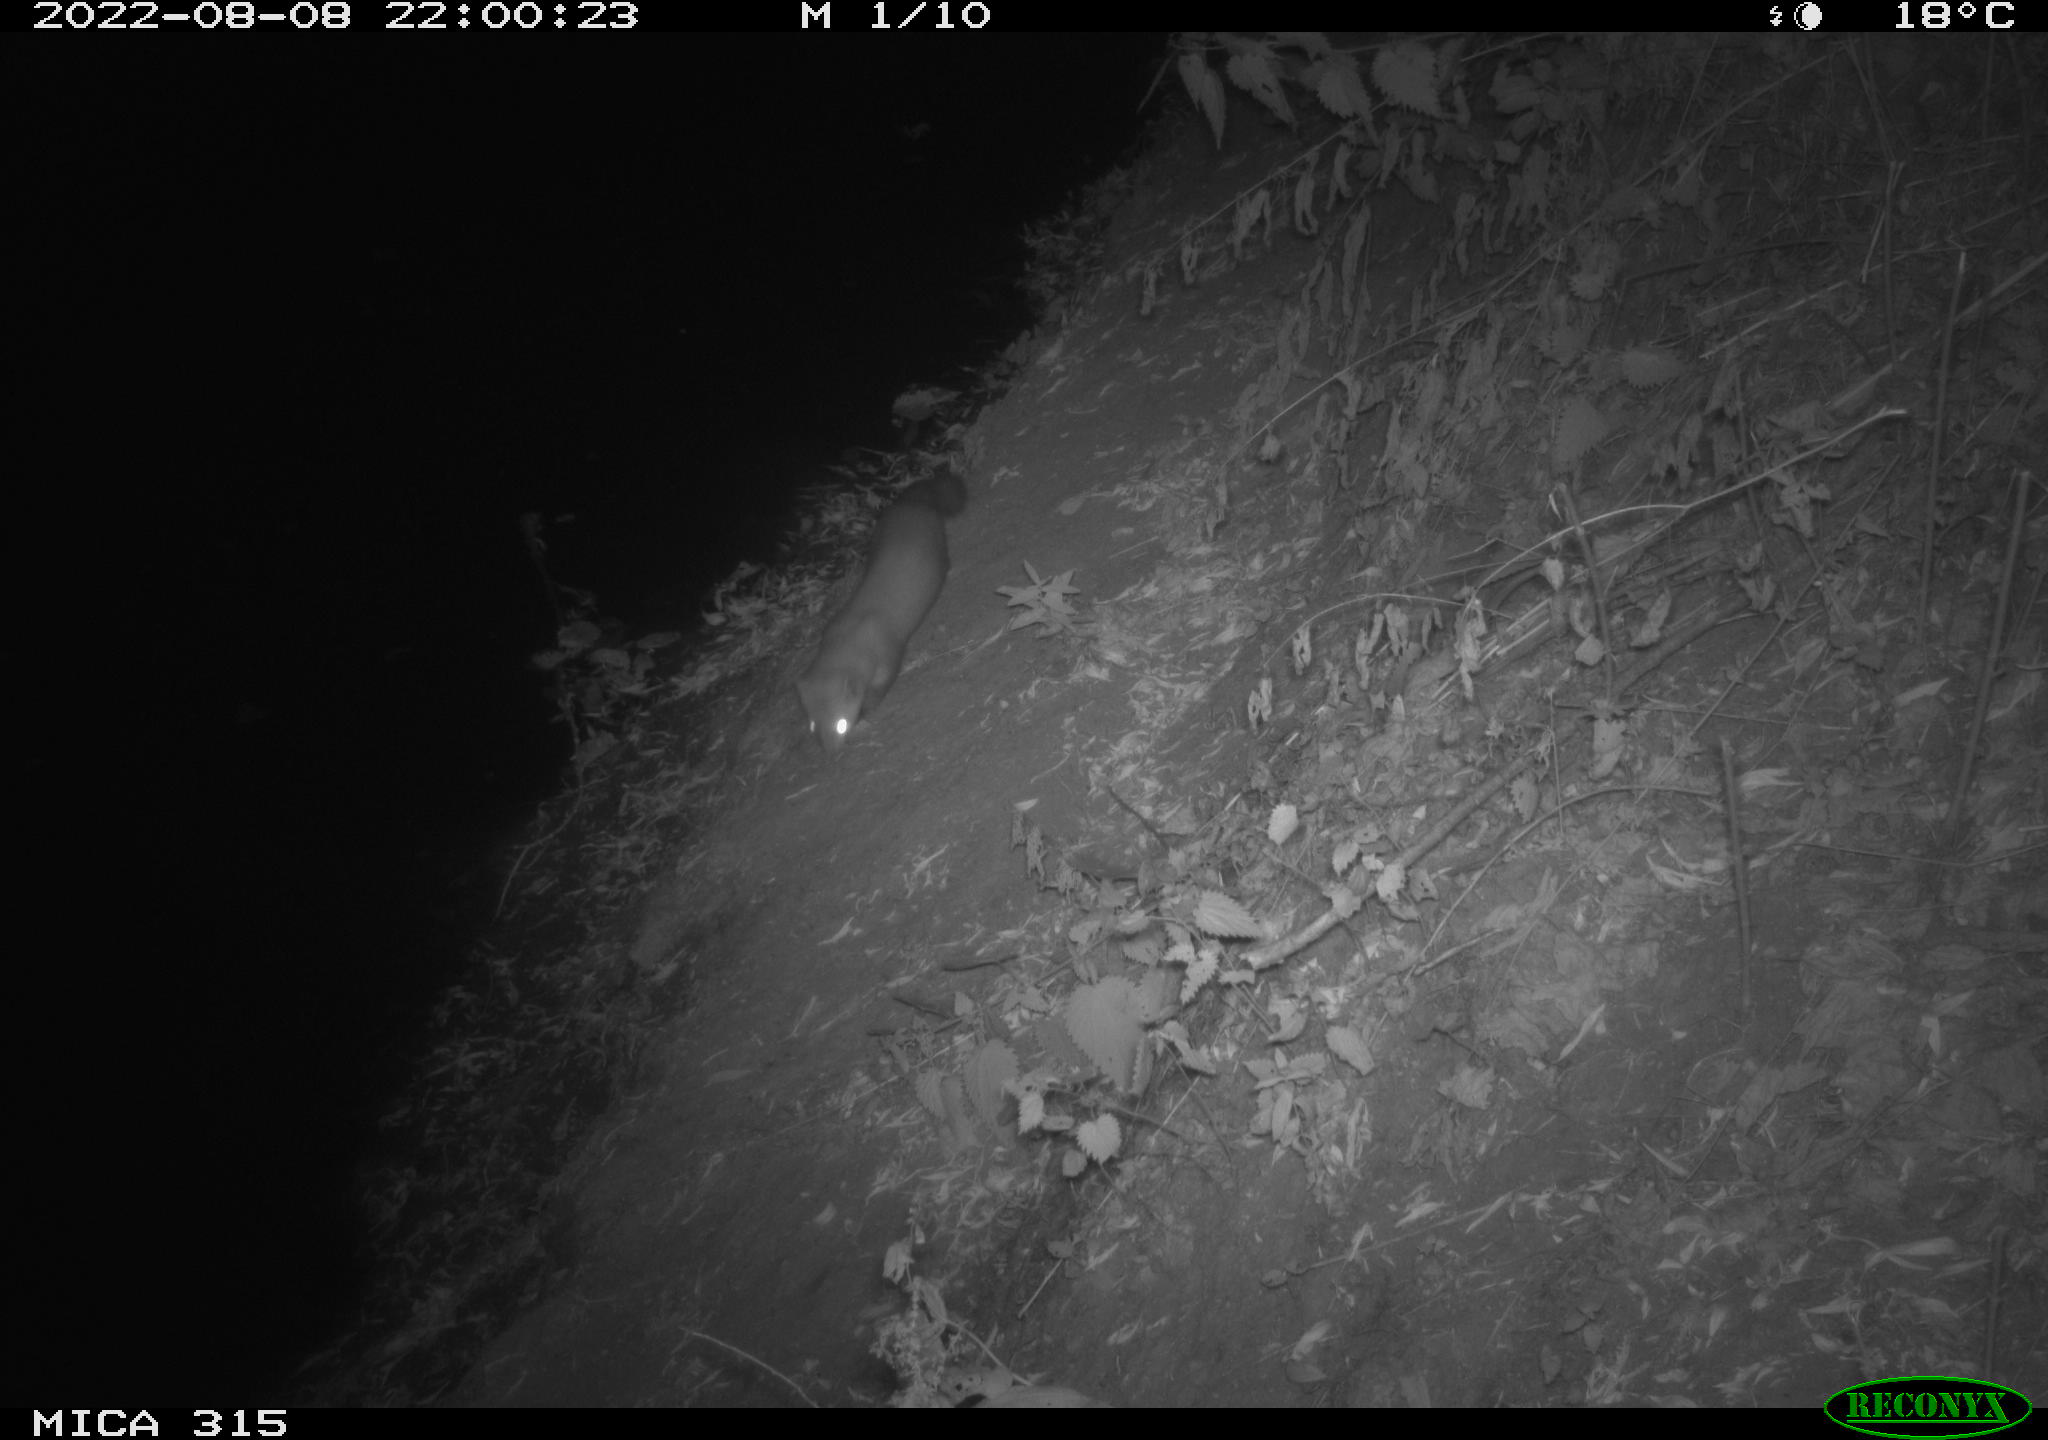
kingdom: Animalia
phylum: Chordata
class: Mammalia
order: Carnivora
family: Mustelidae
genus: Martes
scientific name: Martes foina
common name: Beech marten
